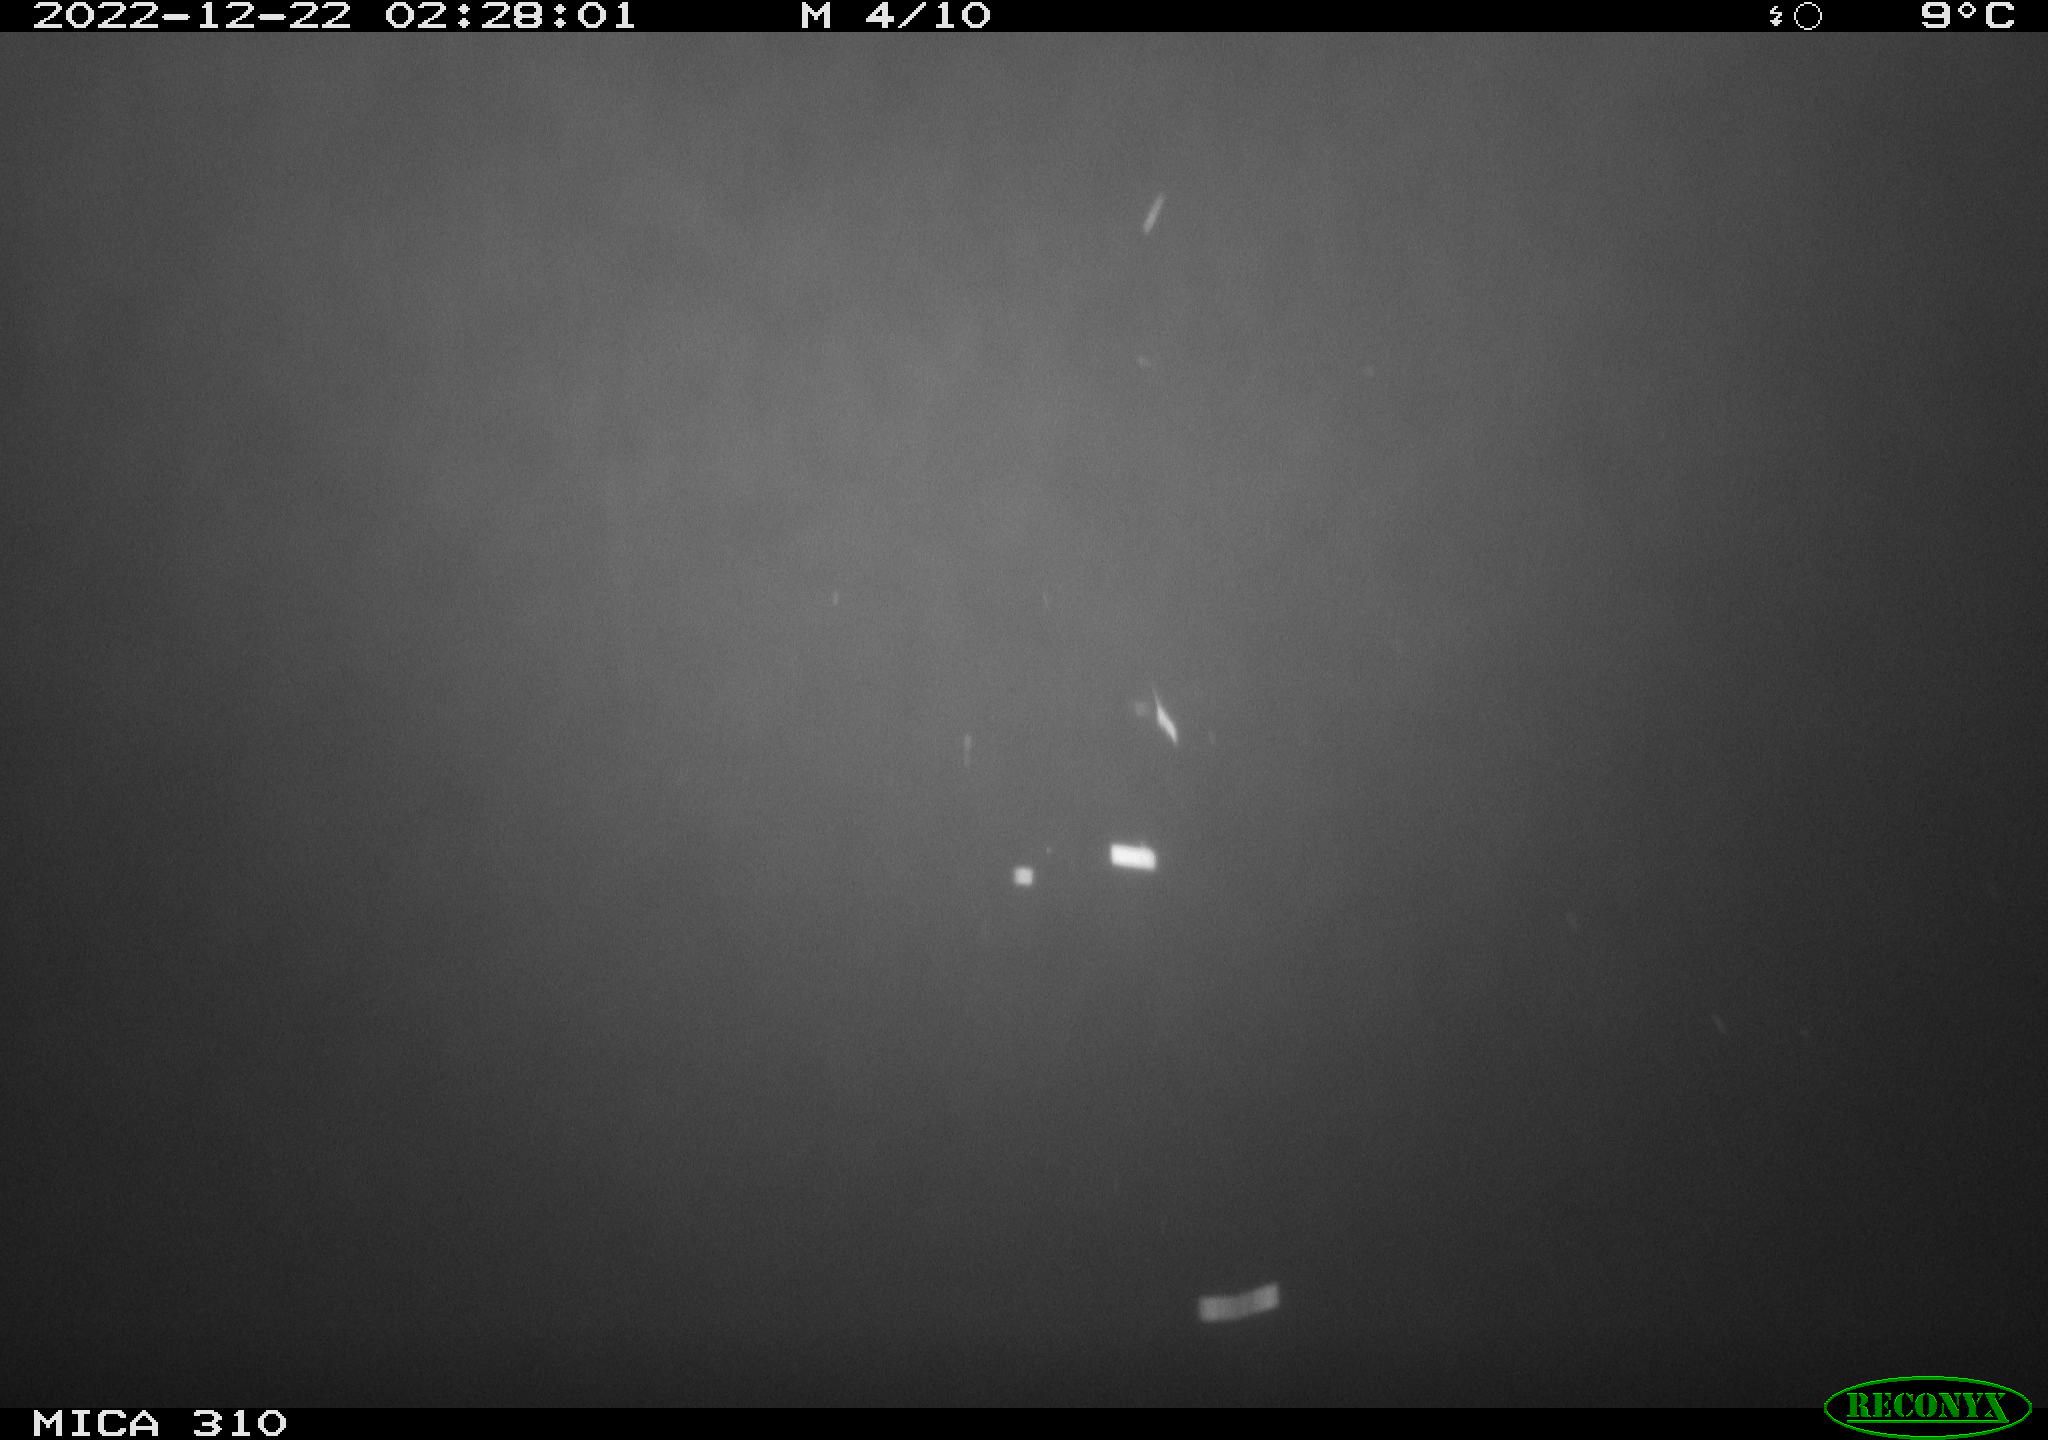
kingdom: Animalia
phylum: Chordata
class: Mammalia
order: Rodentia
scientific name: Rodentia
